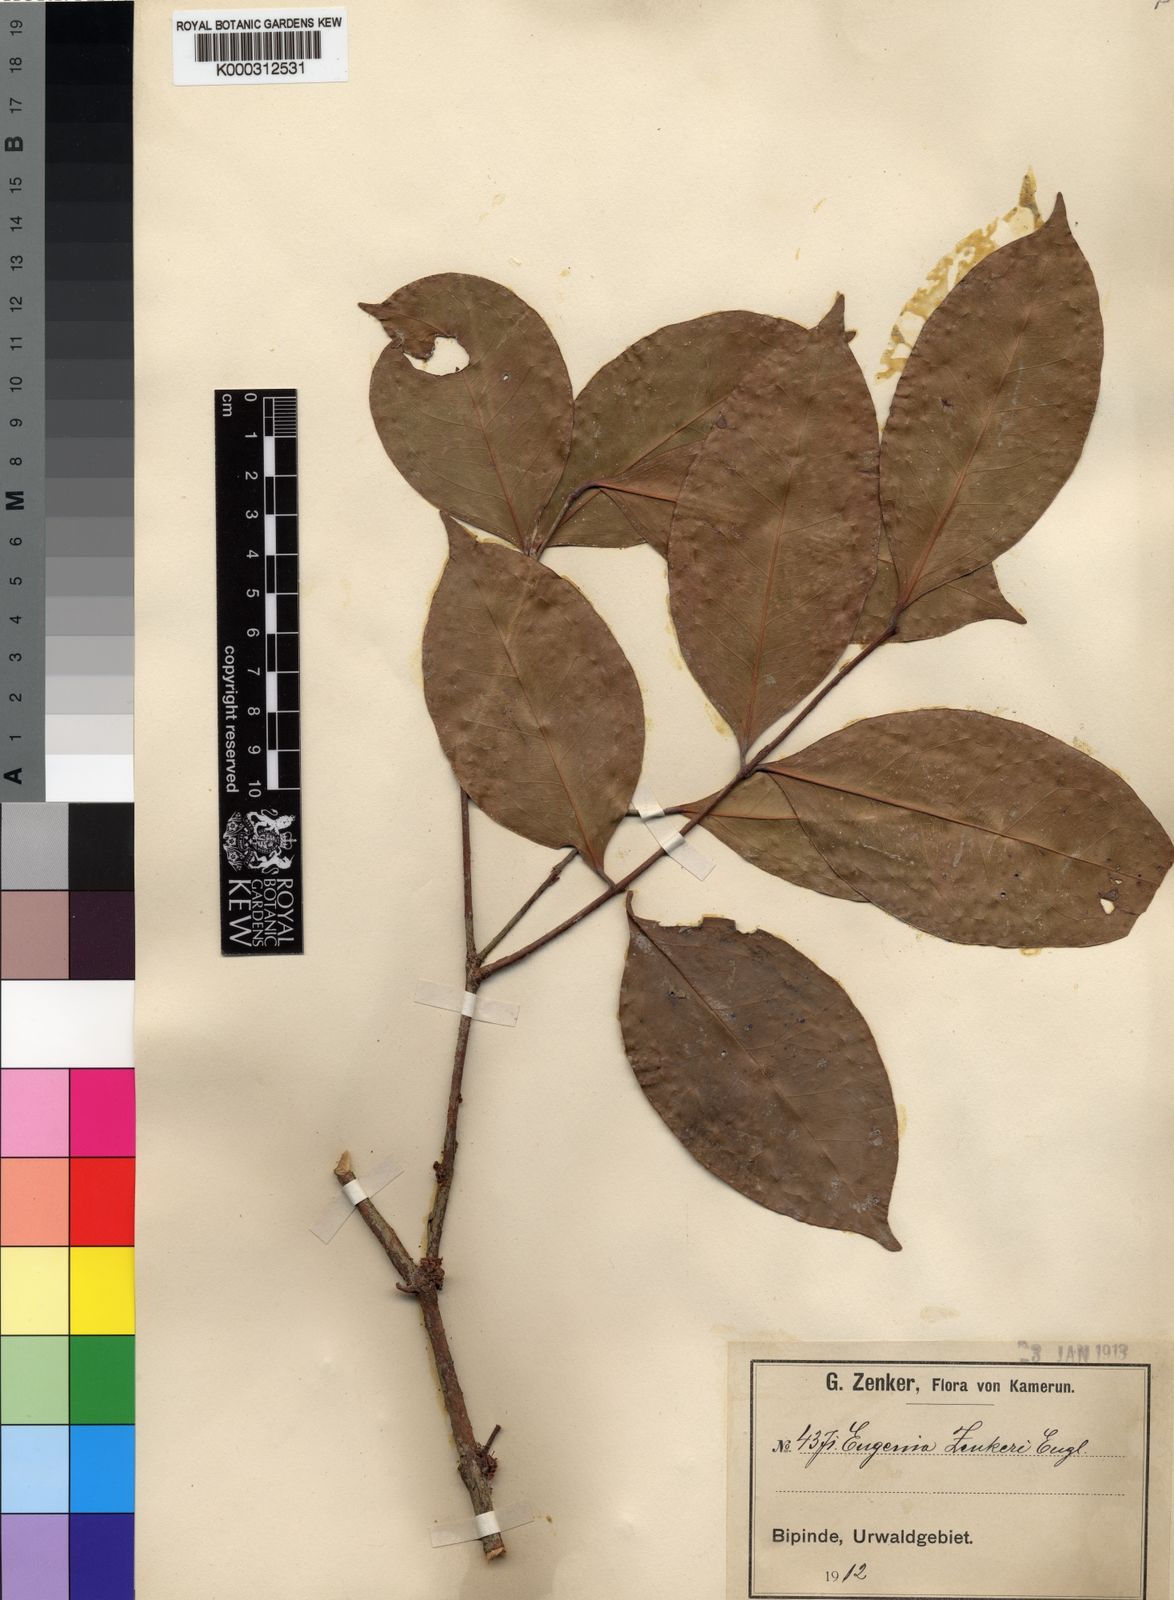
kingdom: Plantae
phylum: Tracheophyta
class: Magnoliopsida
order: Myrtales
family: Myrtaceae
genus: Eugenia
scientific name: Eugenia zenkeri
